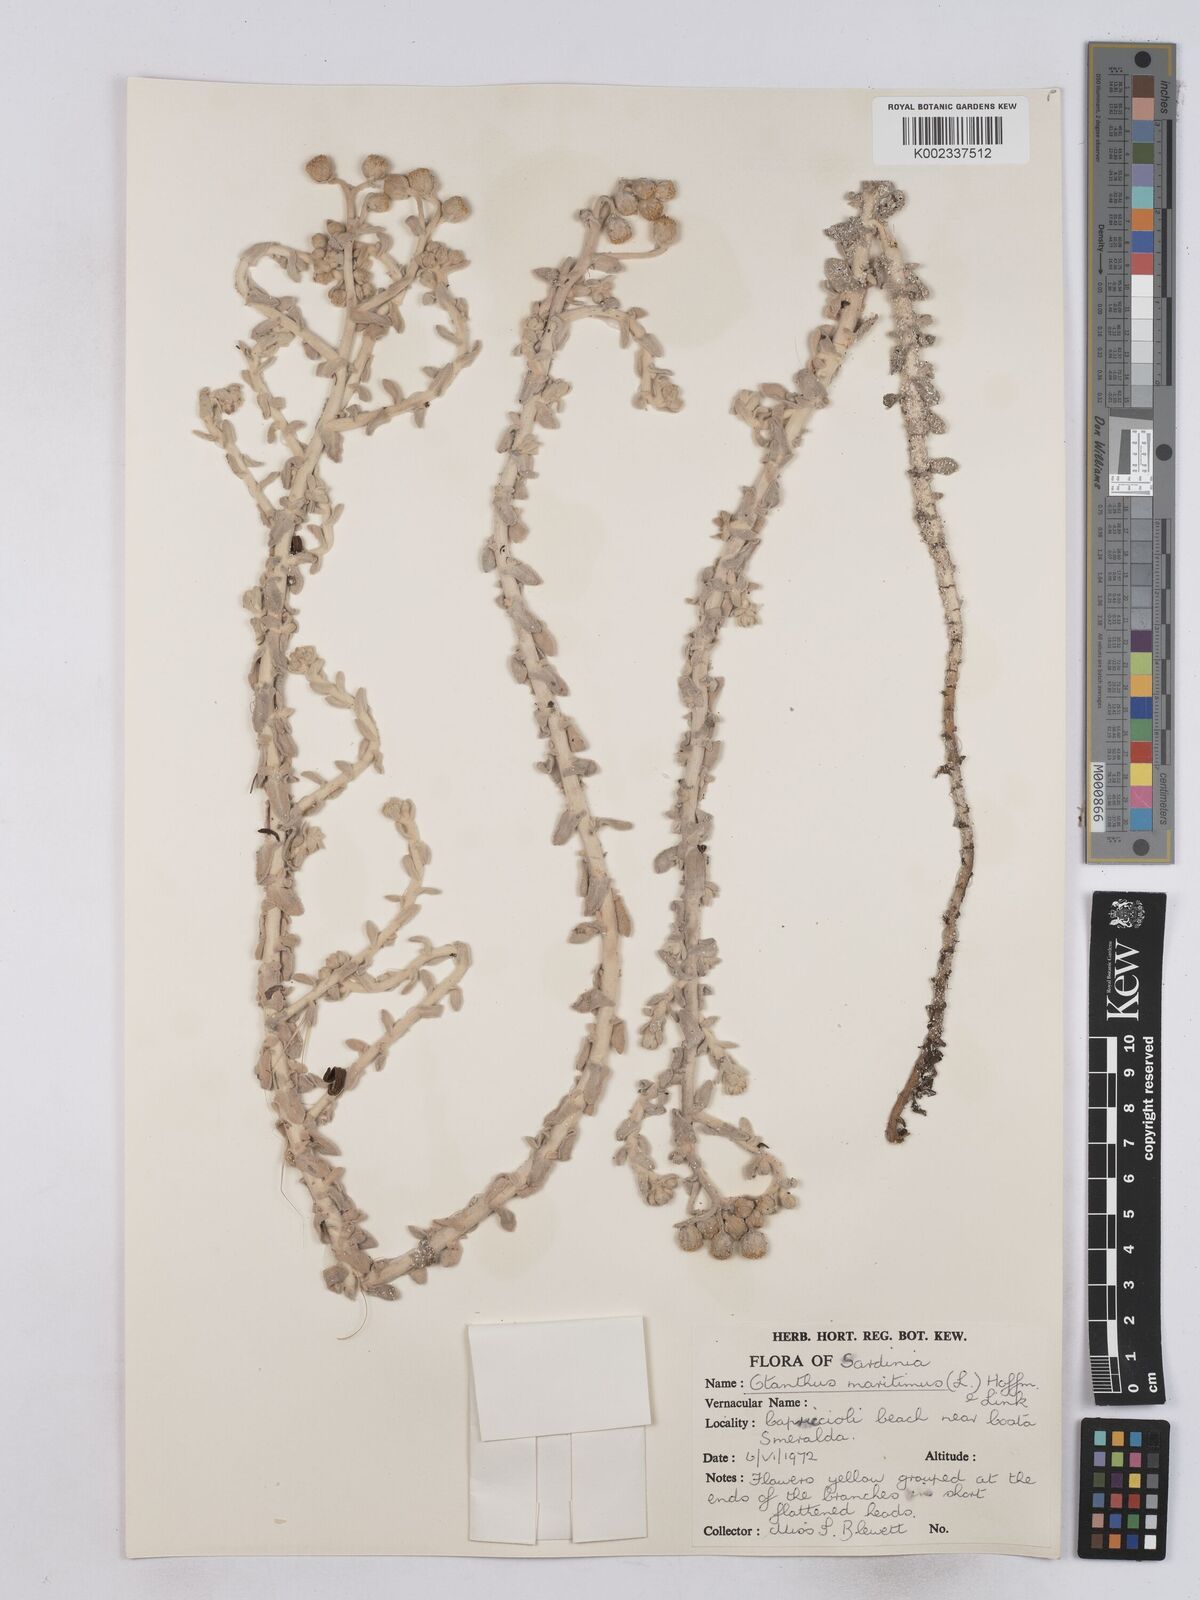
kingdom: Plantae
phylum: Tracheophyta
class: Magnoliopsida
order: Asterales
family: Asteraceae
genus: Achillea
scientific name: Achillea maritima
